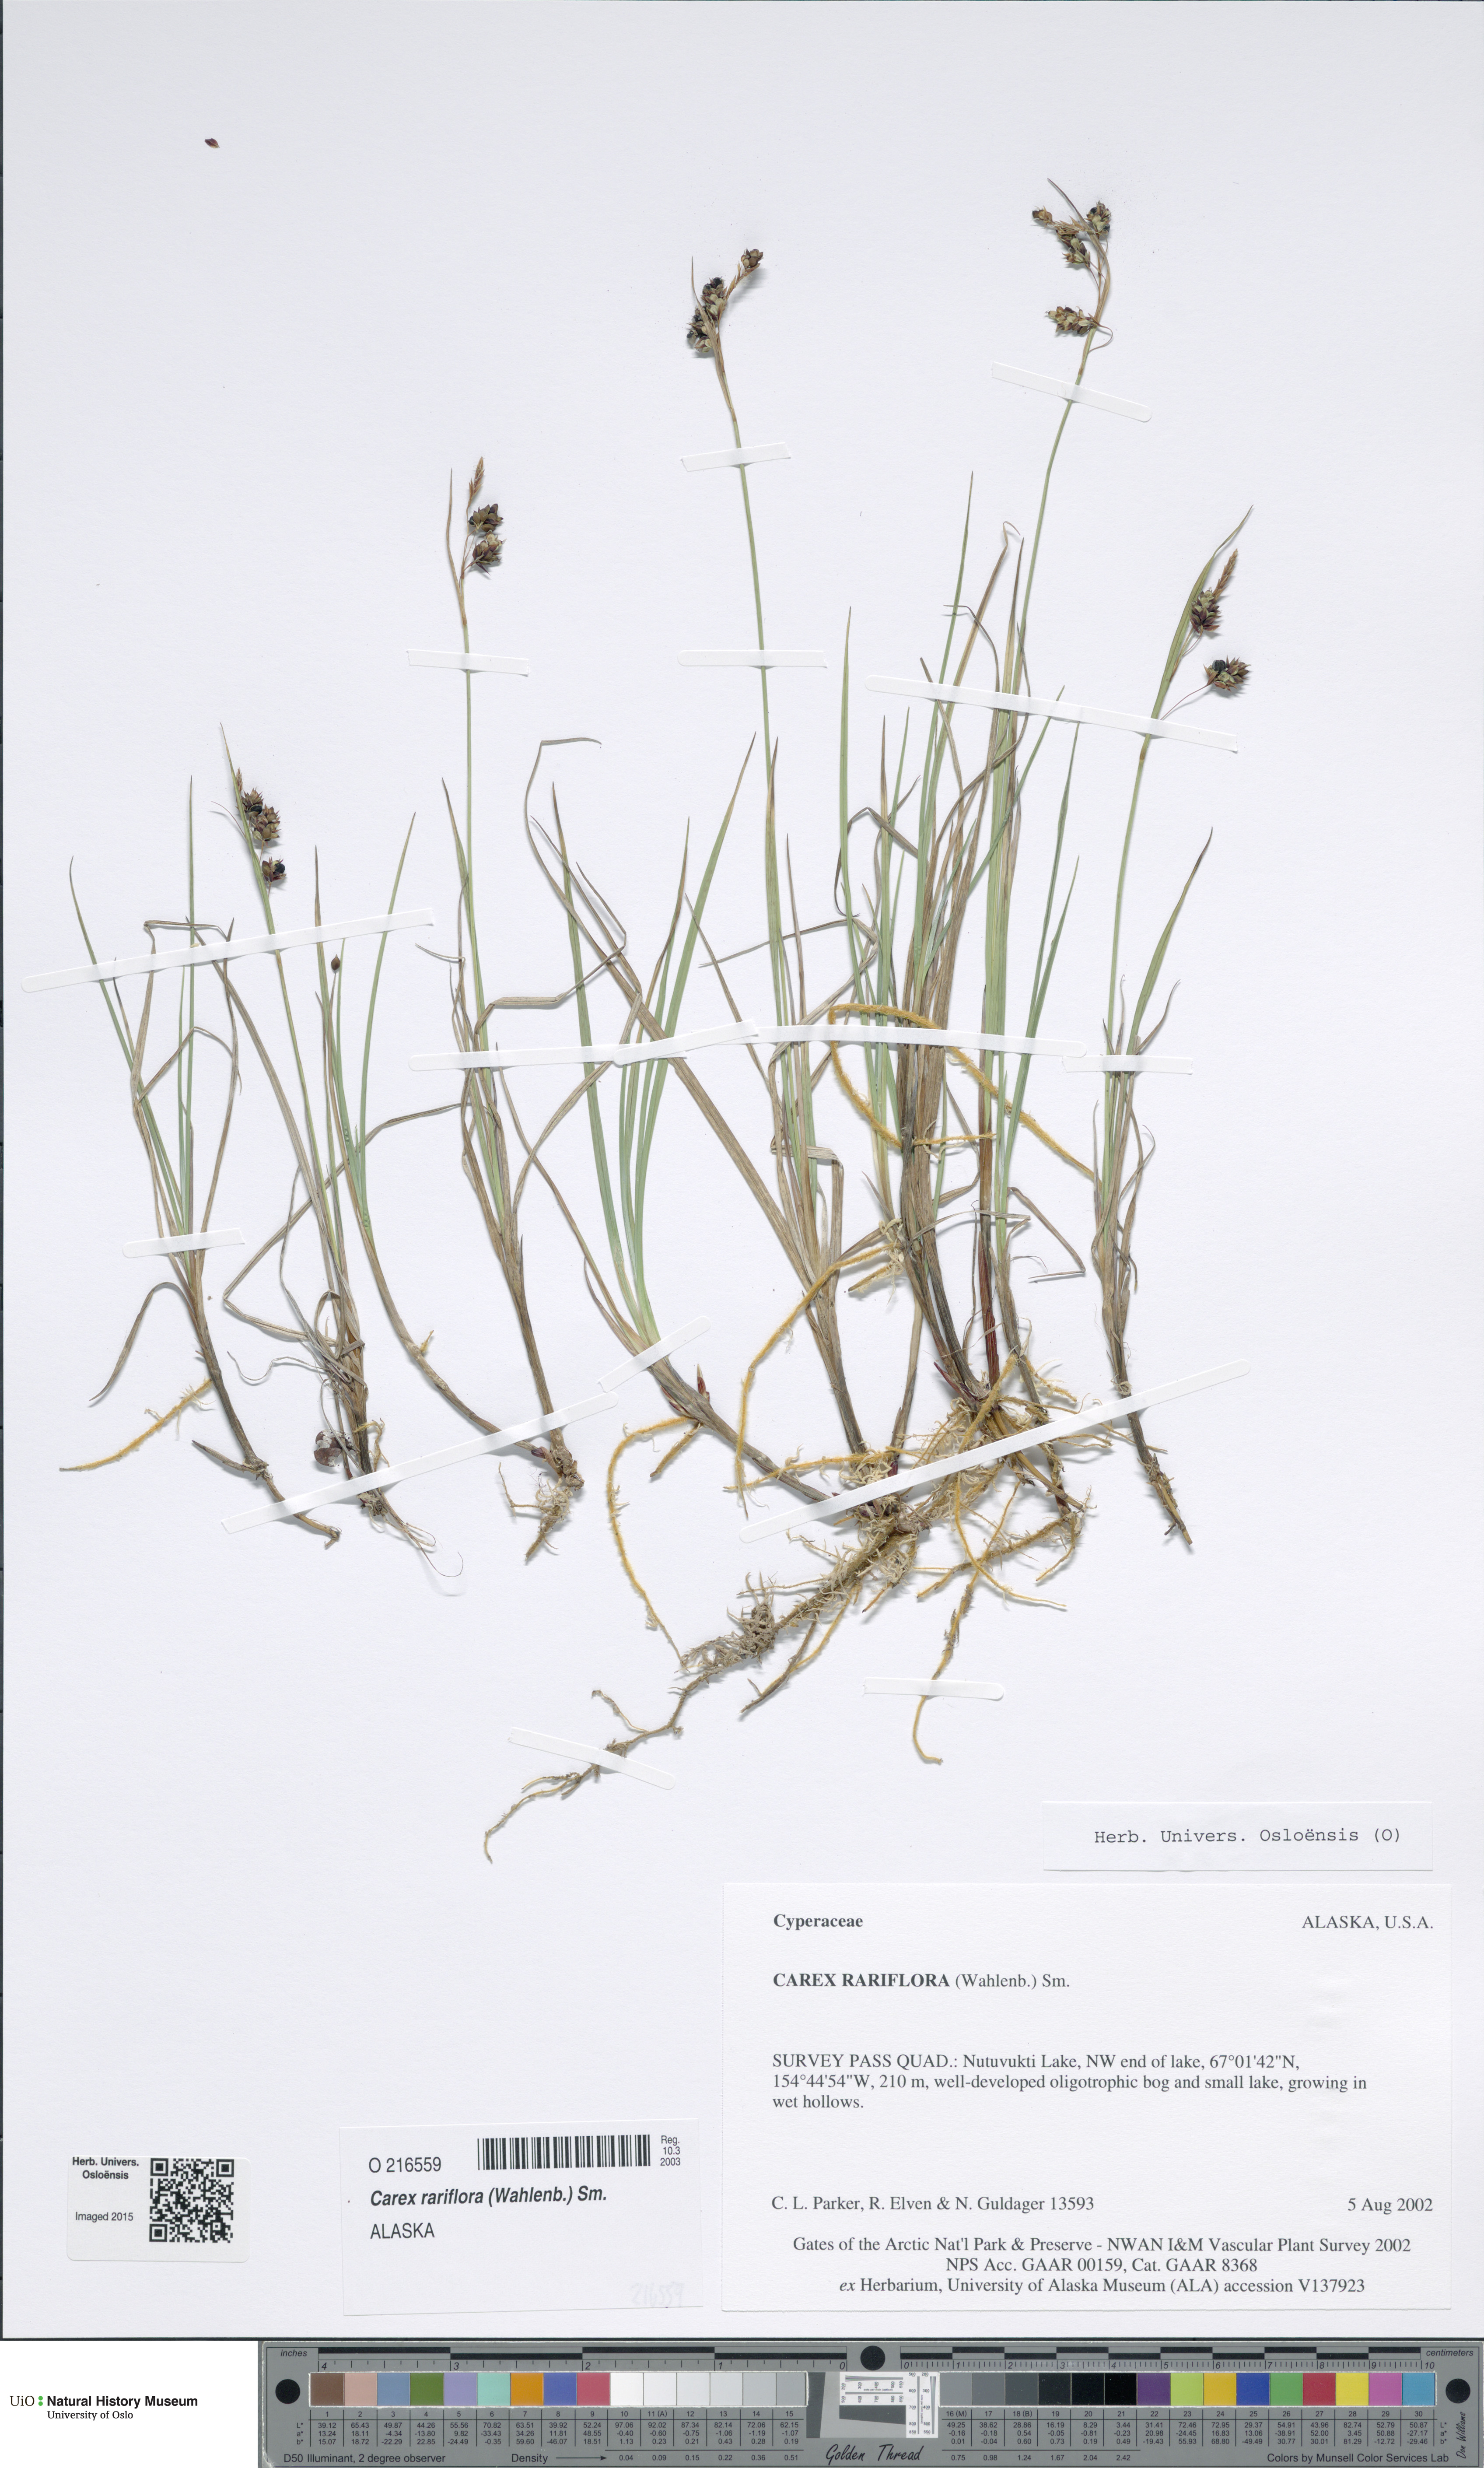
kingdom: Plantae
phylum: Tracheophyta
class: Liliopsida
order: Poales
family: Cyperaceae
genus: Carex
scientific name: Carex rariflora
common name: Loose-flowered alpine sedge
